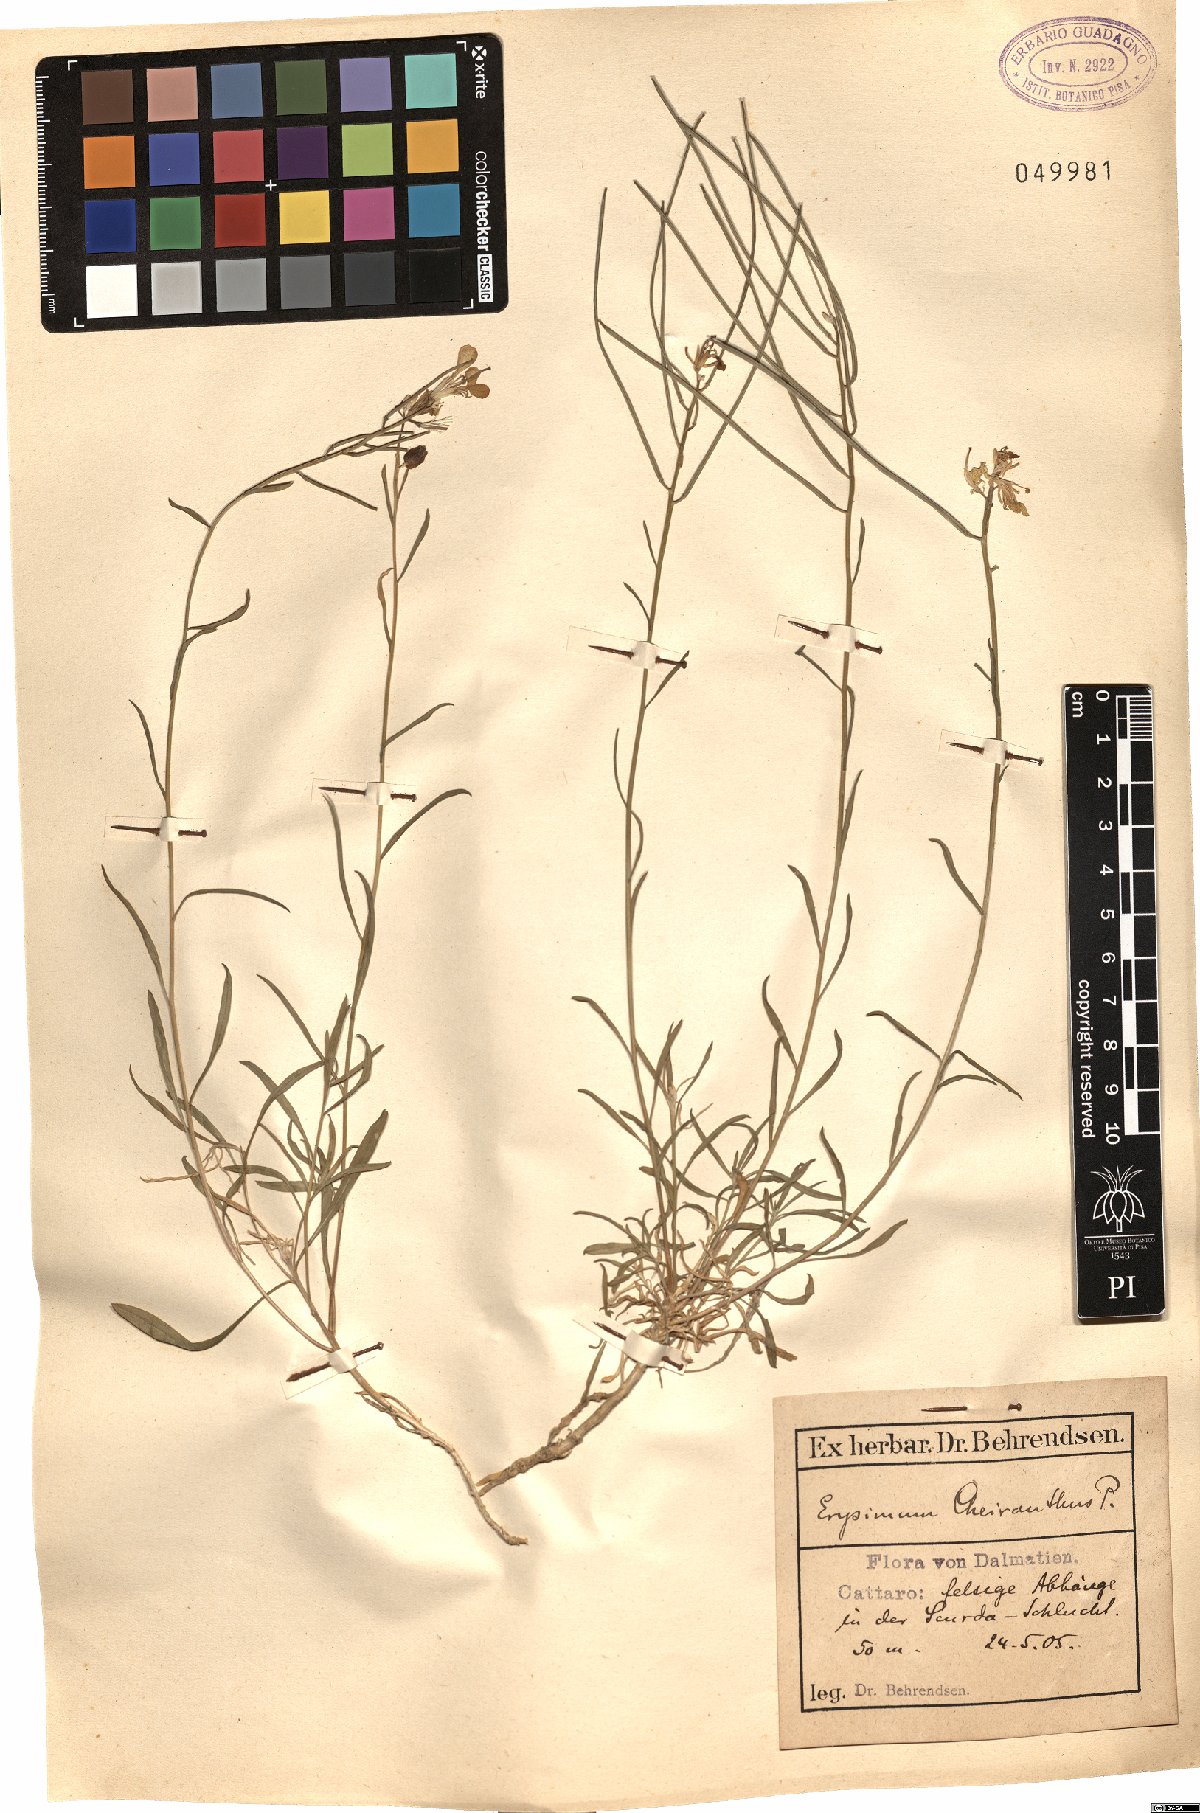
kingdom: Plantae
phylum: Tracheophyta
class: Magnoliopsida
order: Brassicales
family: Brassicaceae
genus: Erysimum
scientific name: Erysimum sylvestre
